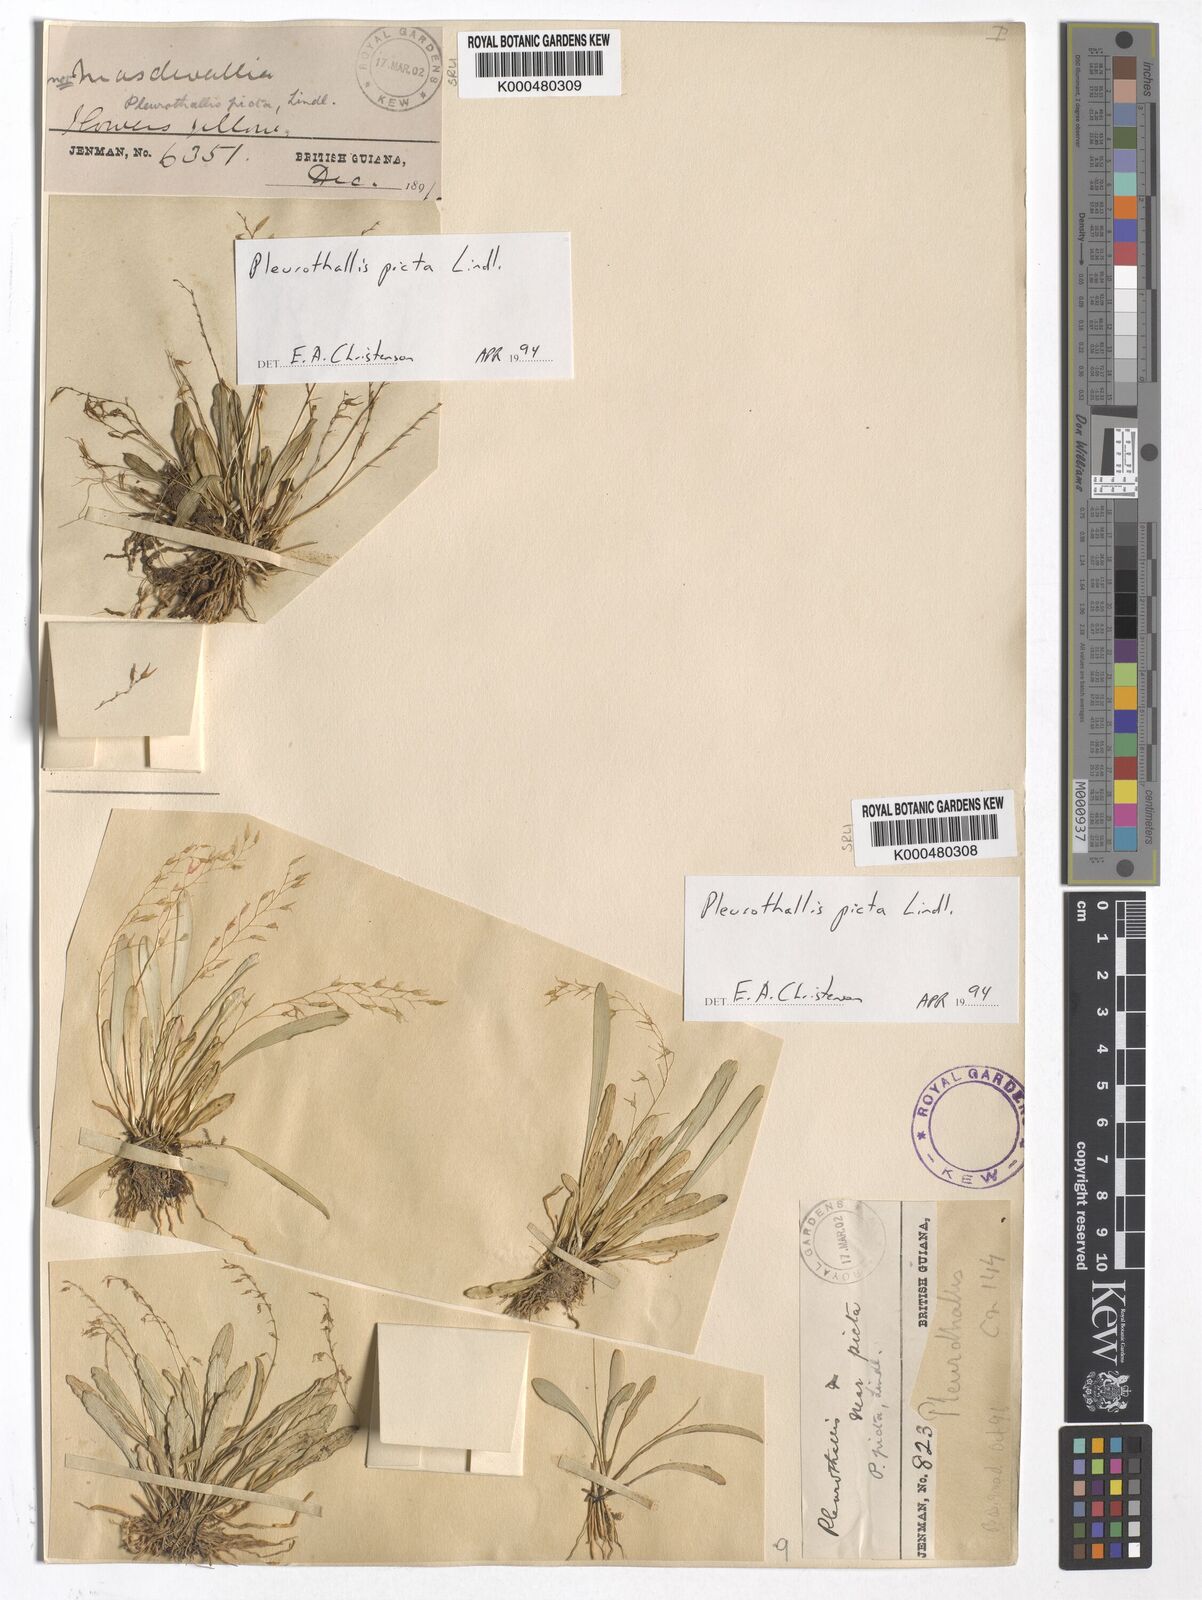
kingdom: Plantae
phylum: Tracheophyta
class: Liliopsida
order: Asparagales
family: Orchidaceae
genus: Specklinia
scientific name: Specklinia picta
